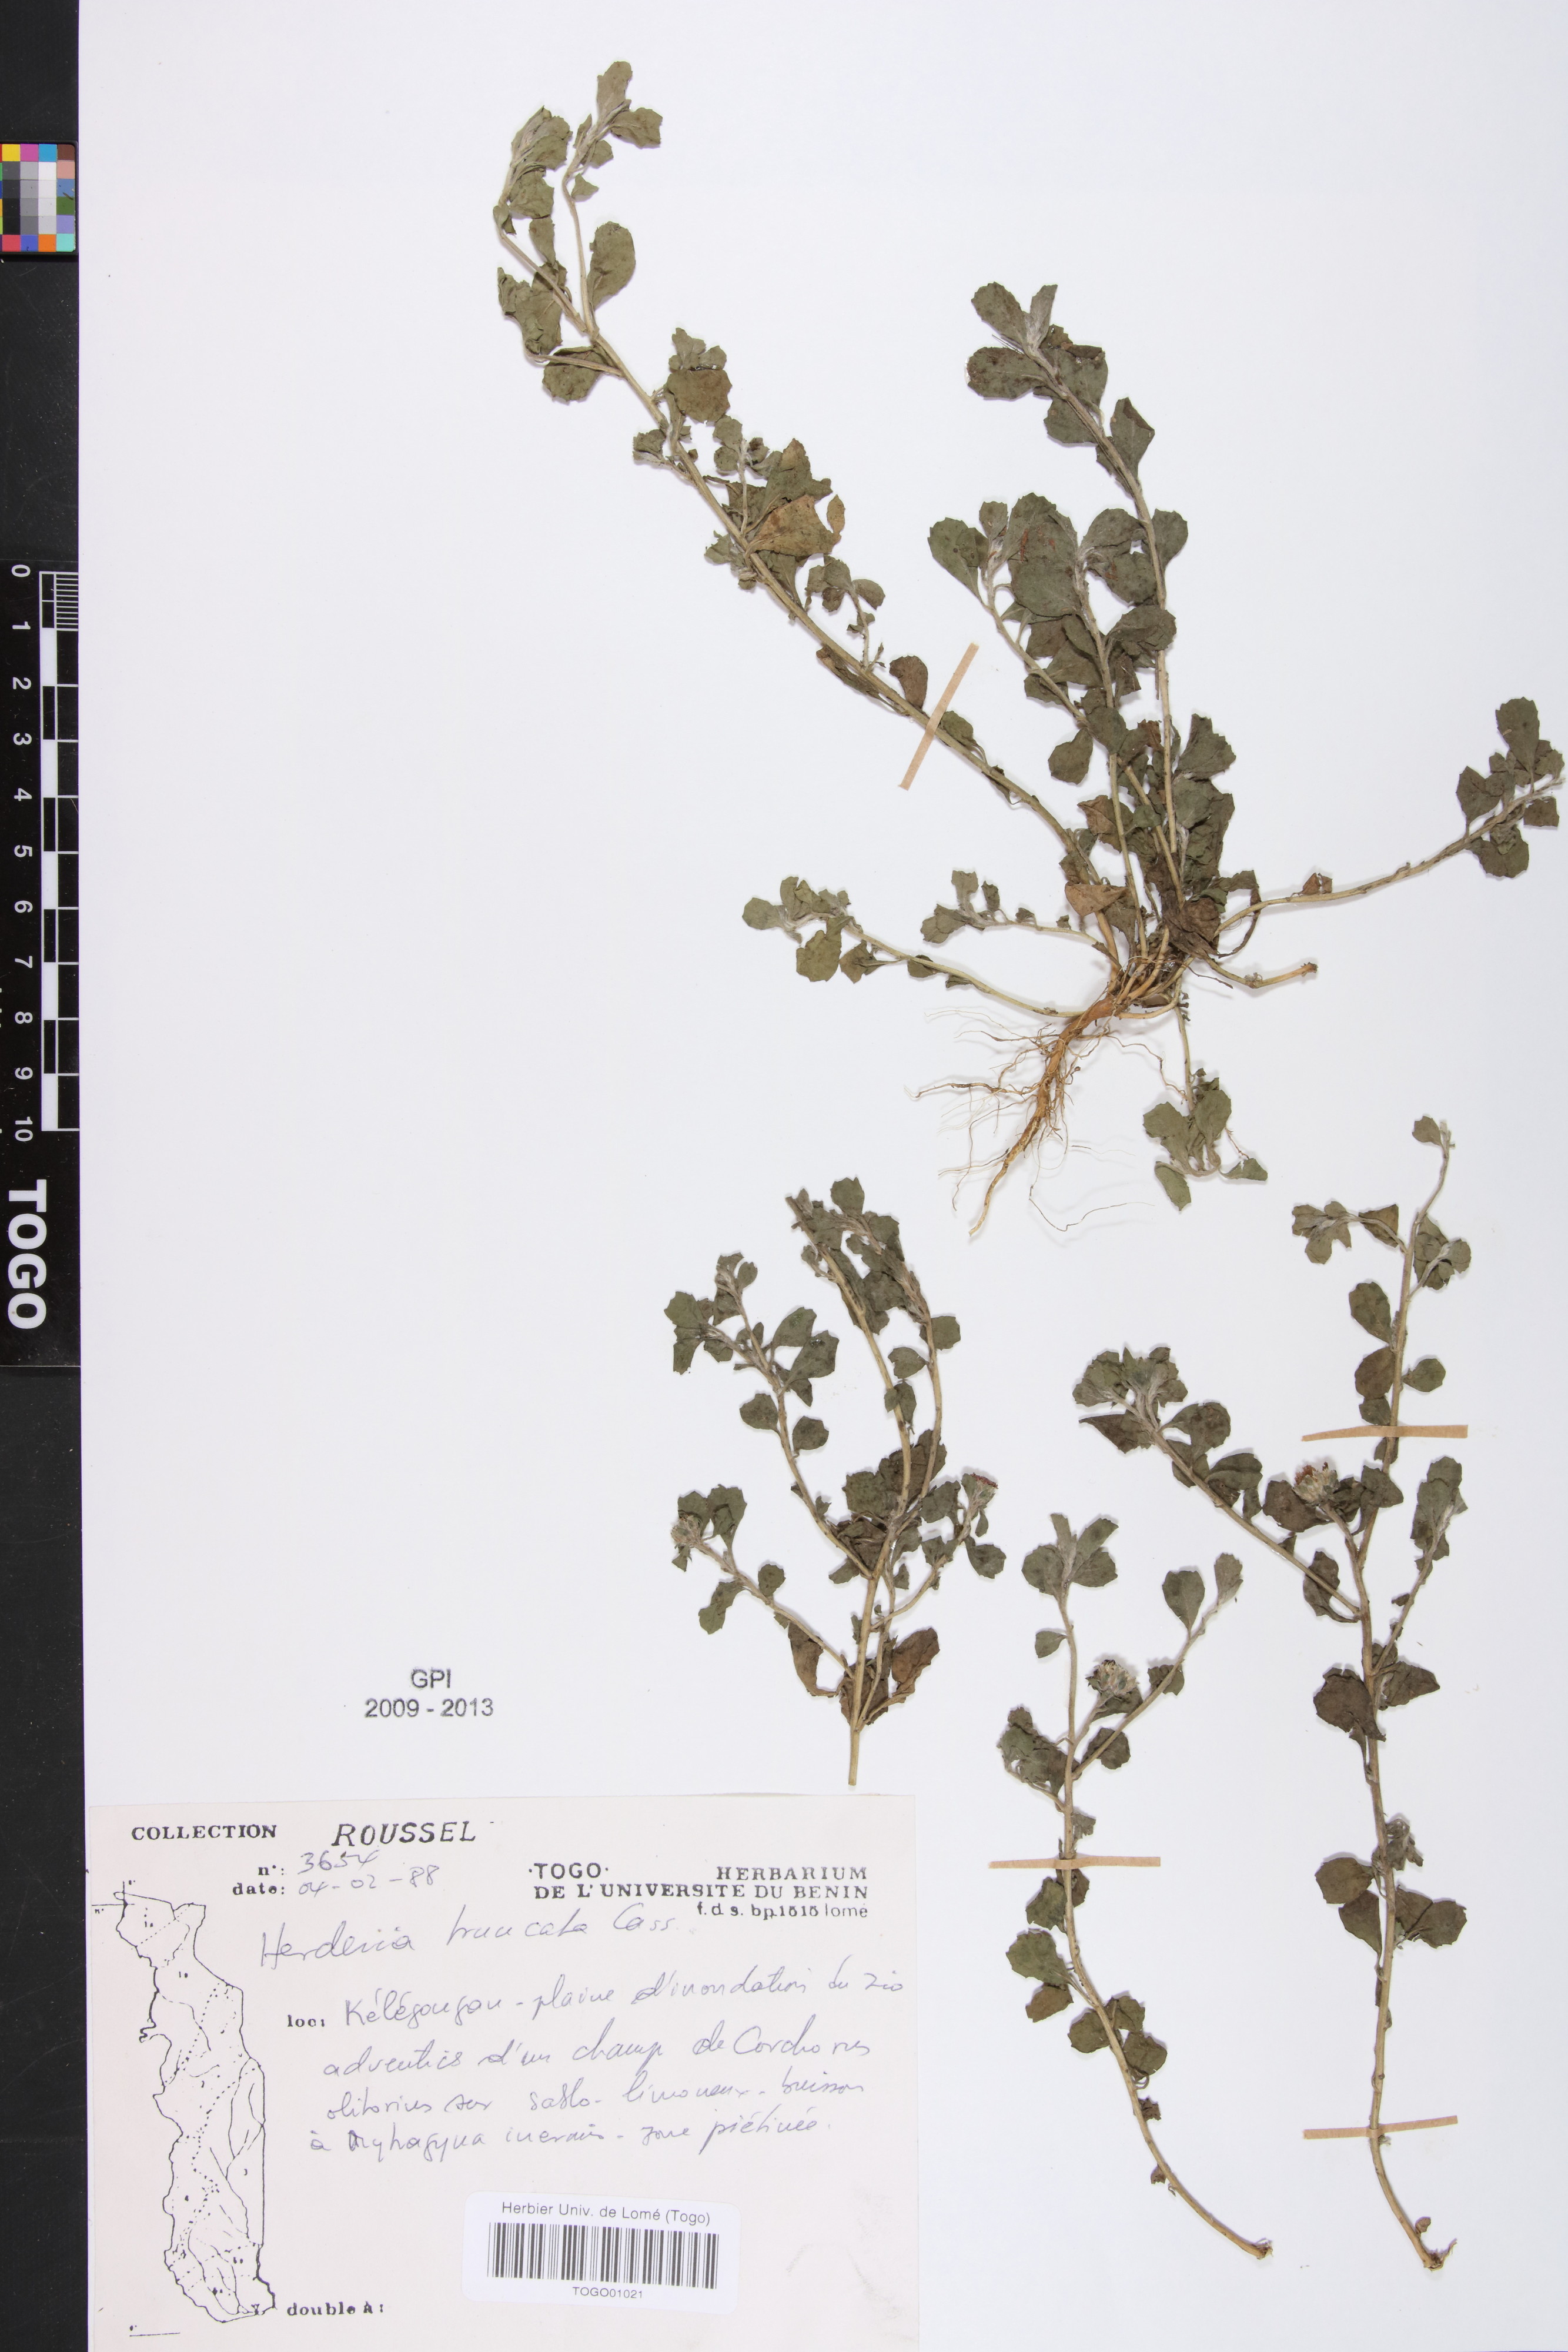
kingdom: Plantae
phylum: Tracheophyta
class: Magnoliopsida
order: Asterales
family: Asteraceae
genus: Herderia
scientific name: Herderia truncata
